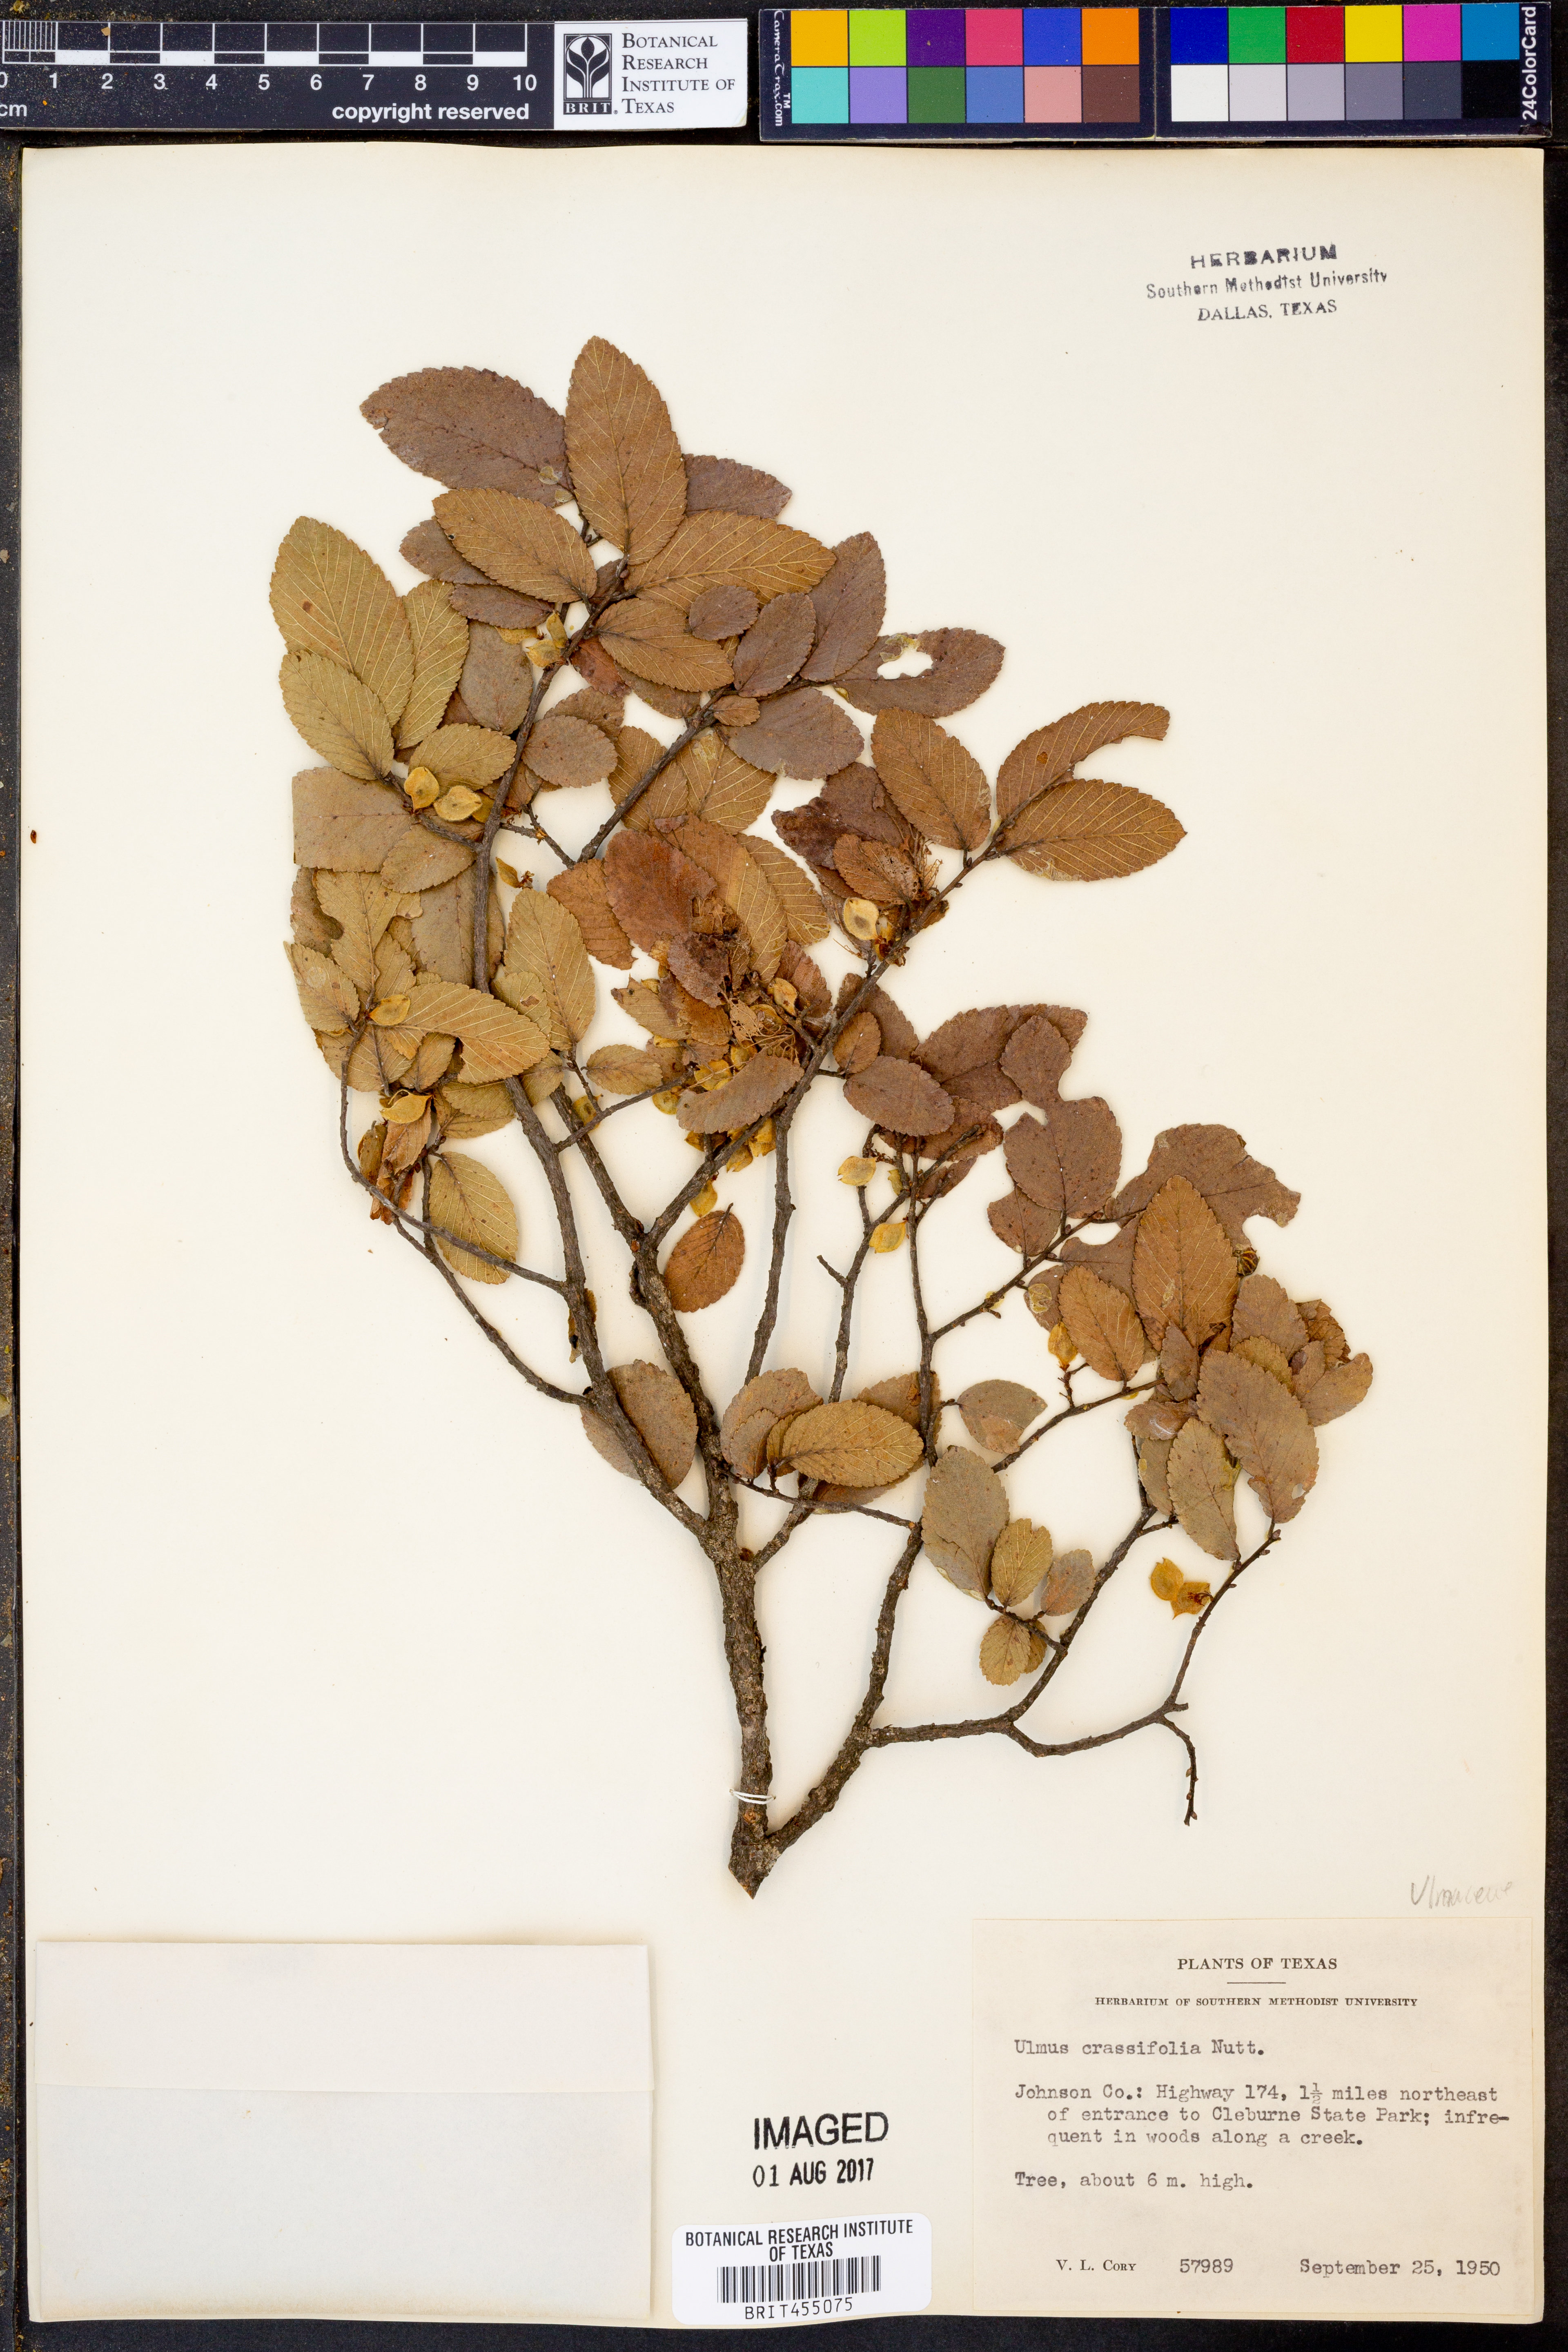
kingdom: Plantae
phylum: Tracheophyta
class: Magnoliopsida
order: Rosales
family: Ulmaceae
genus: Ulmus
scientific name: Ulmus crassifolia
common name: Basket elm
